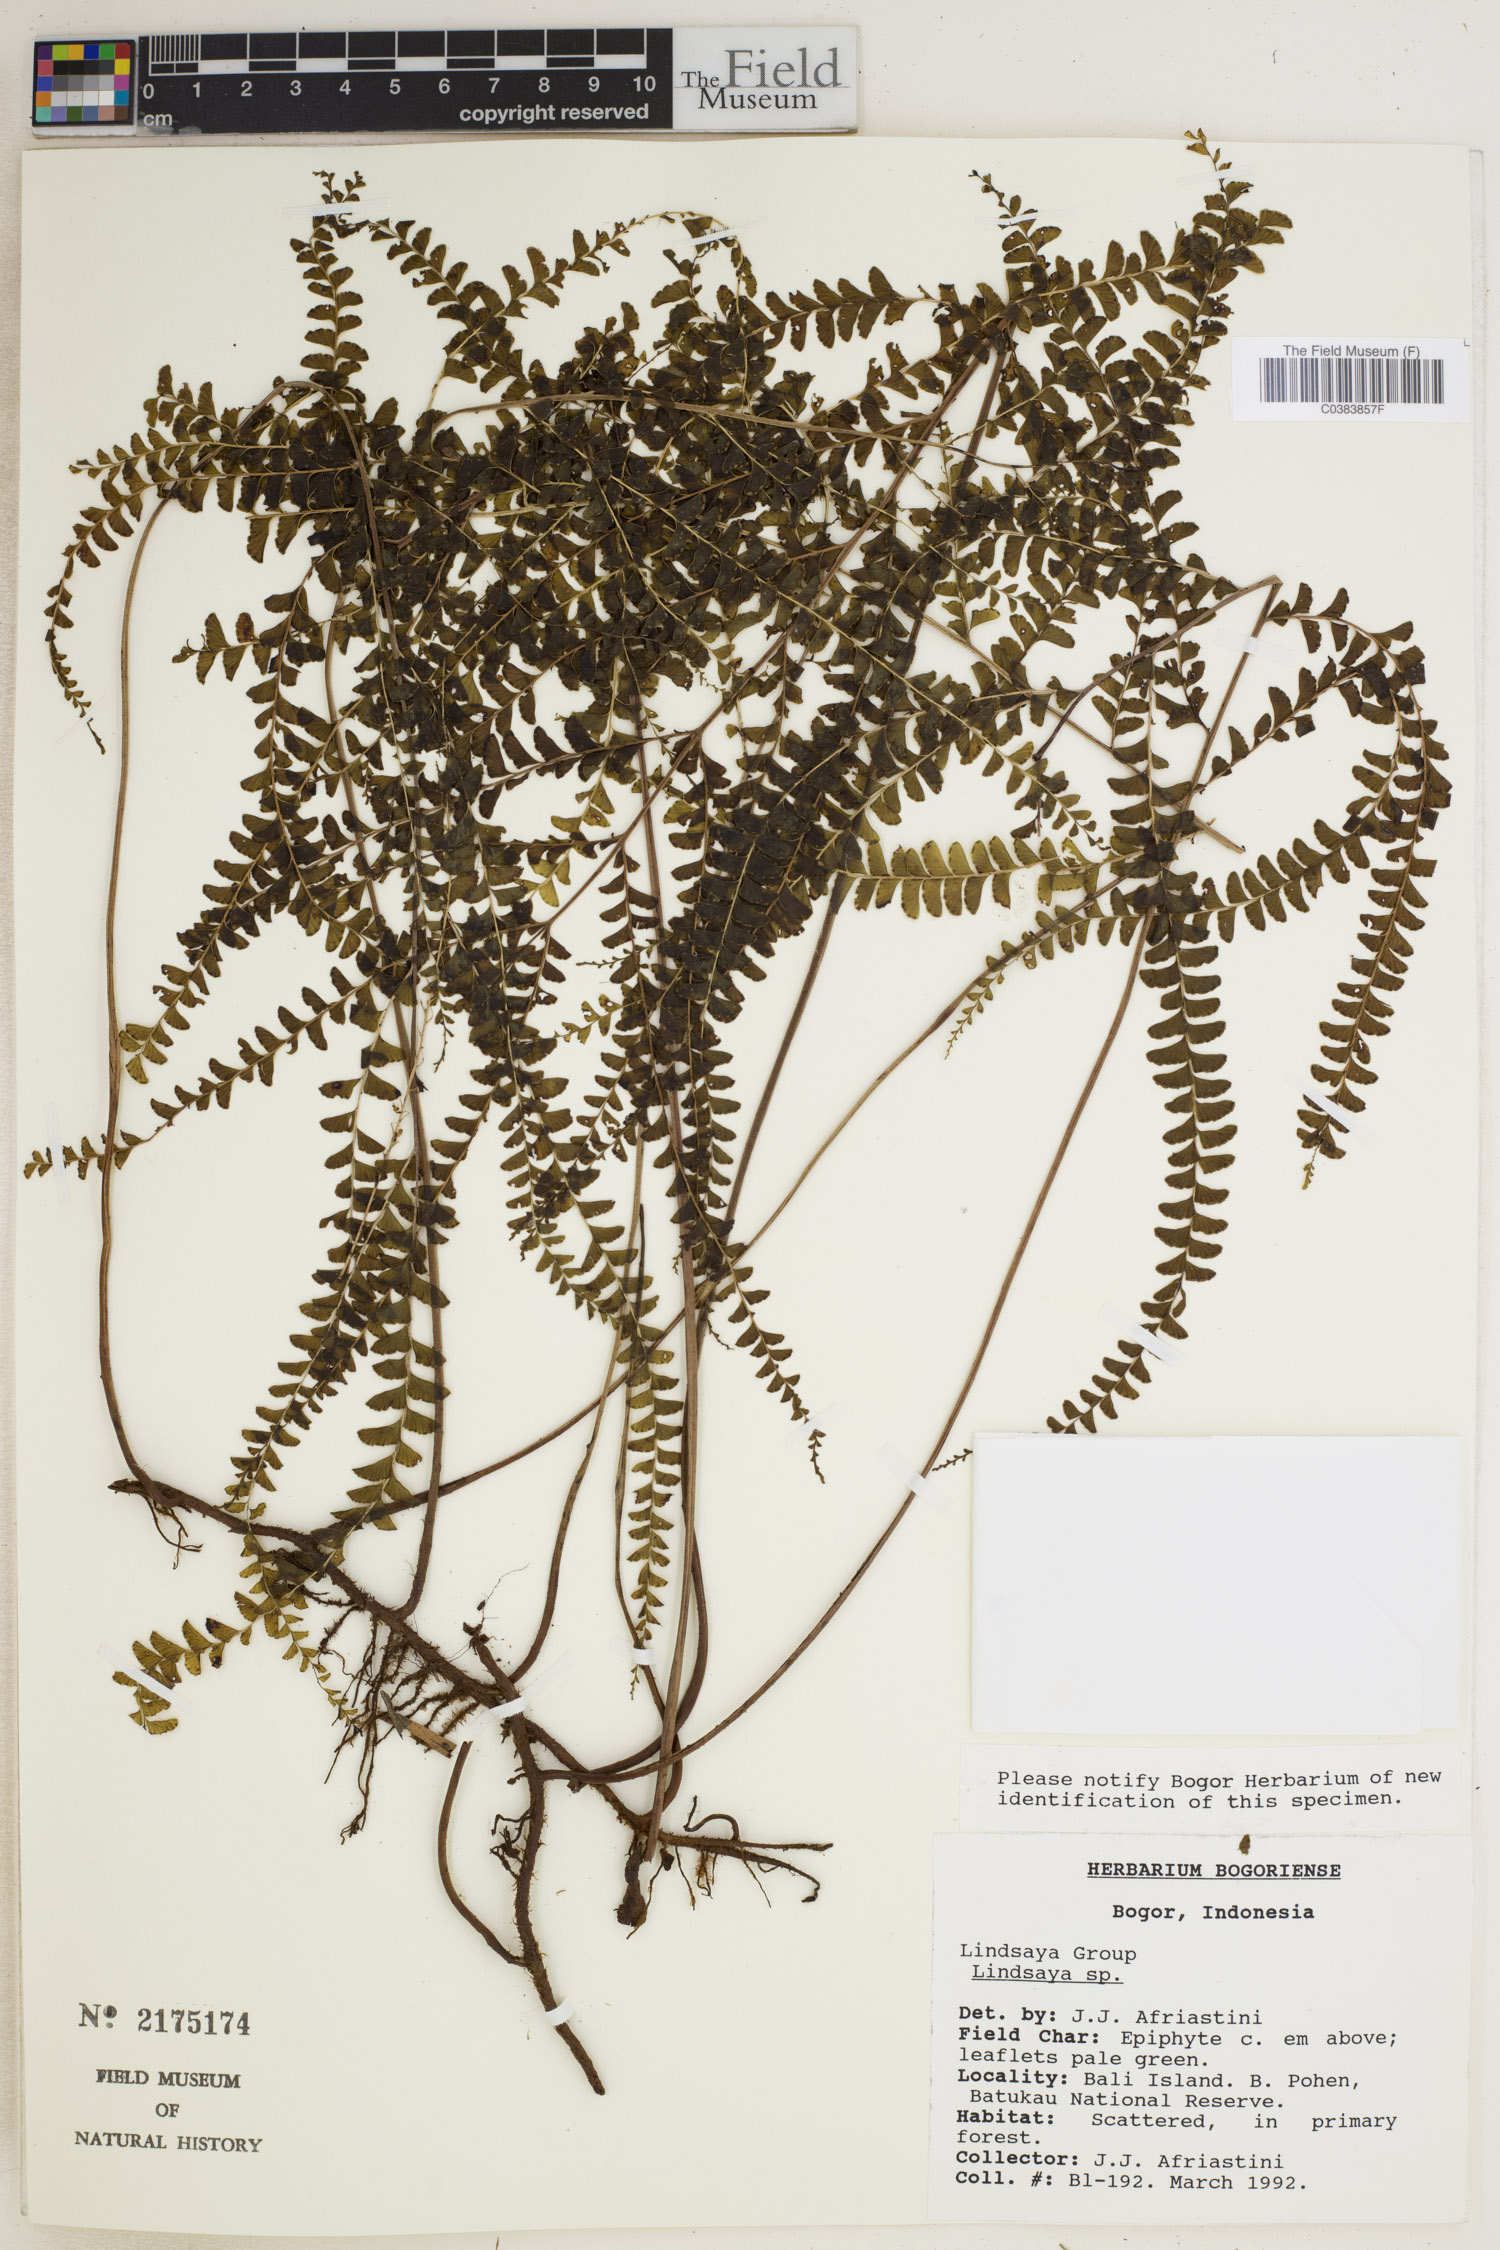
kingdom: Plantae
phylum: Tracheophyta
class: Polypodiopsida
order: Polypodiales
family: Dennstaedtiaceae
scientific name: Dennstaedtiaceae
